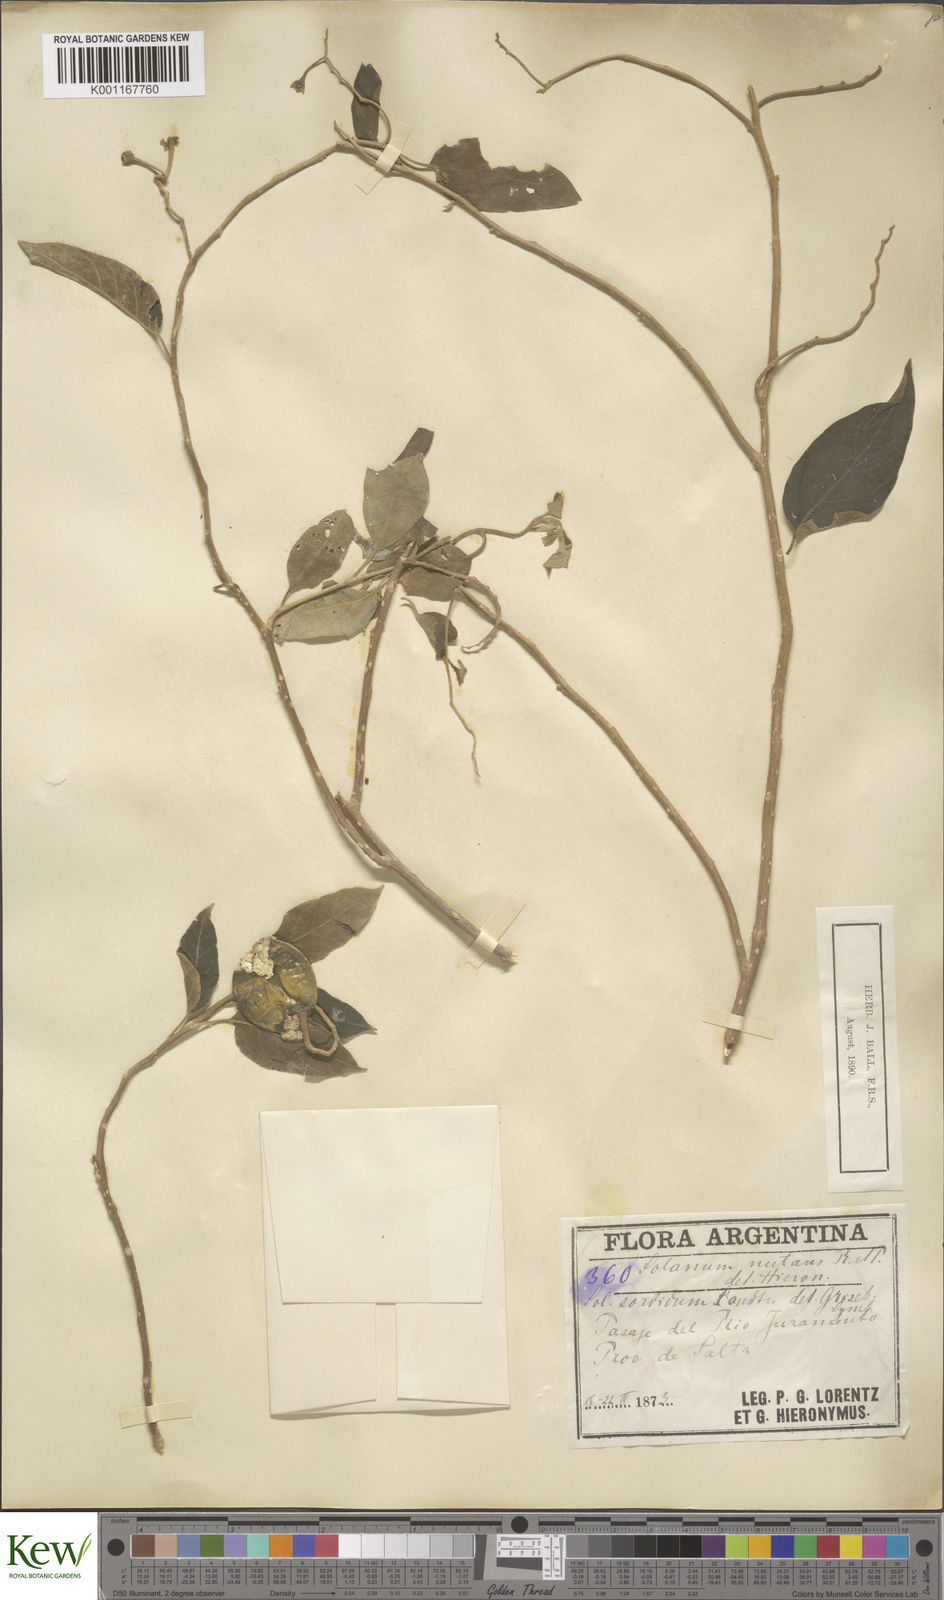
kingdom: Plantae
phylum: Tracheophyta
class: Magnoliopsida
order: Solanales
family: Solanaceae
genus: Solanum
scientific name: Solanum stuckertii
